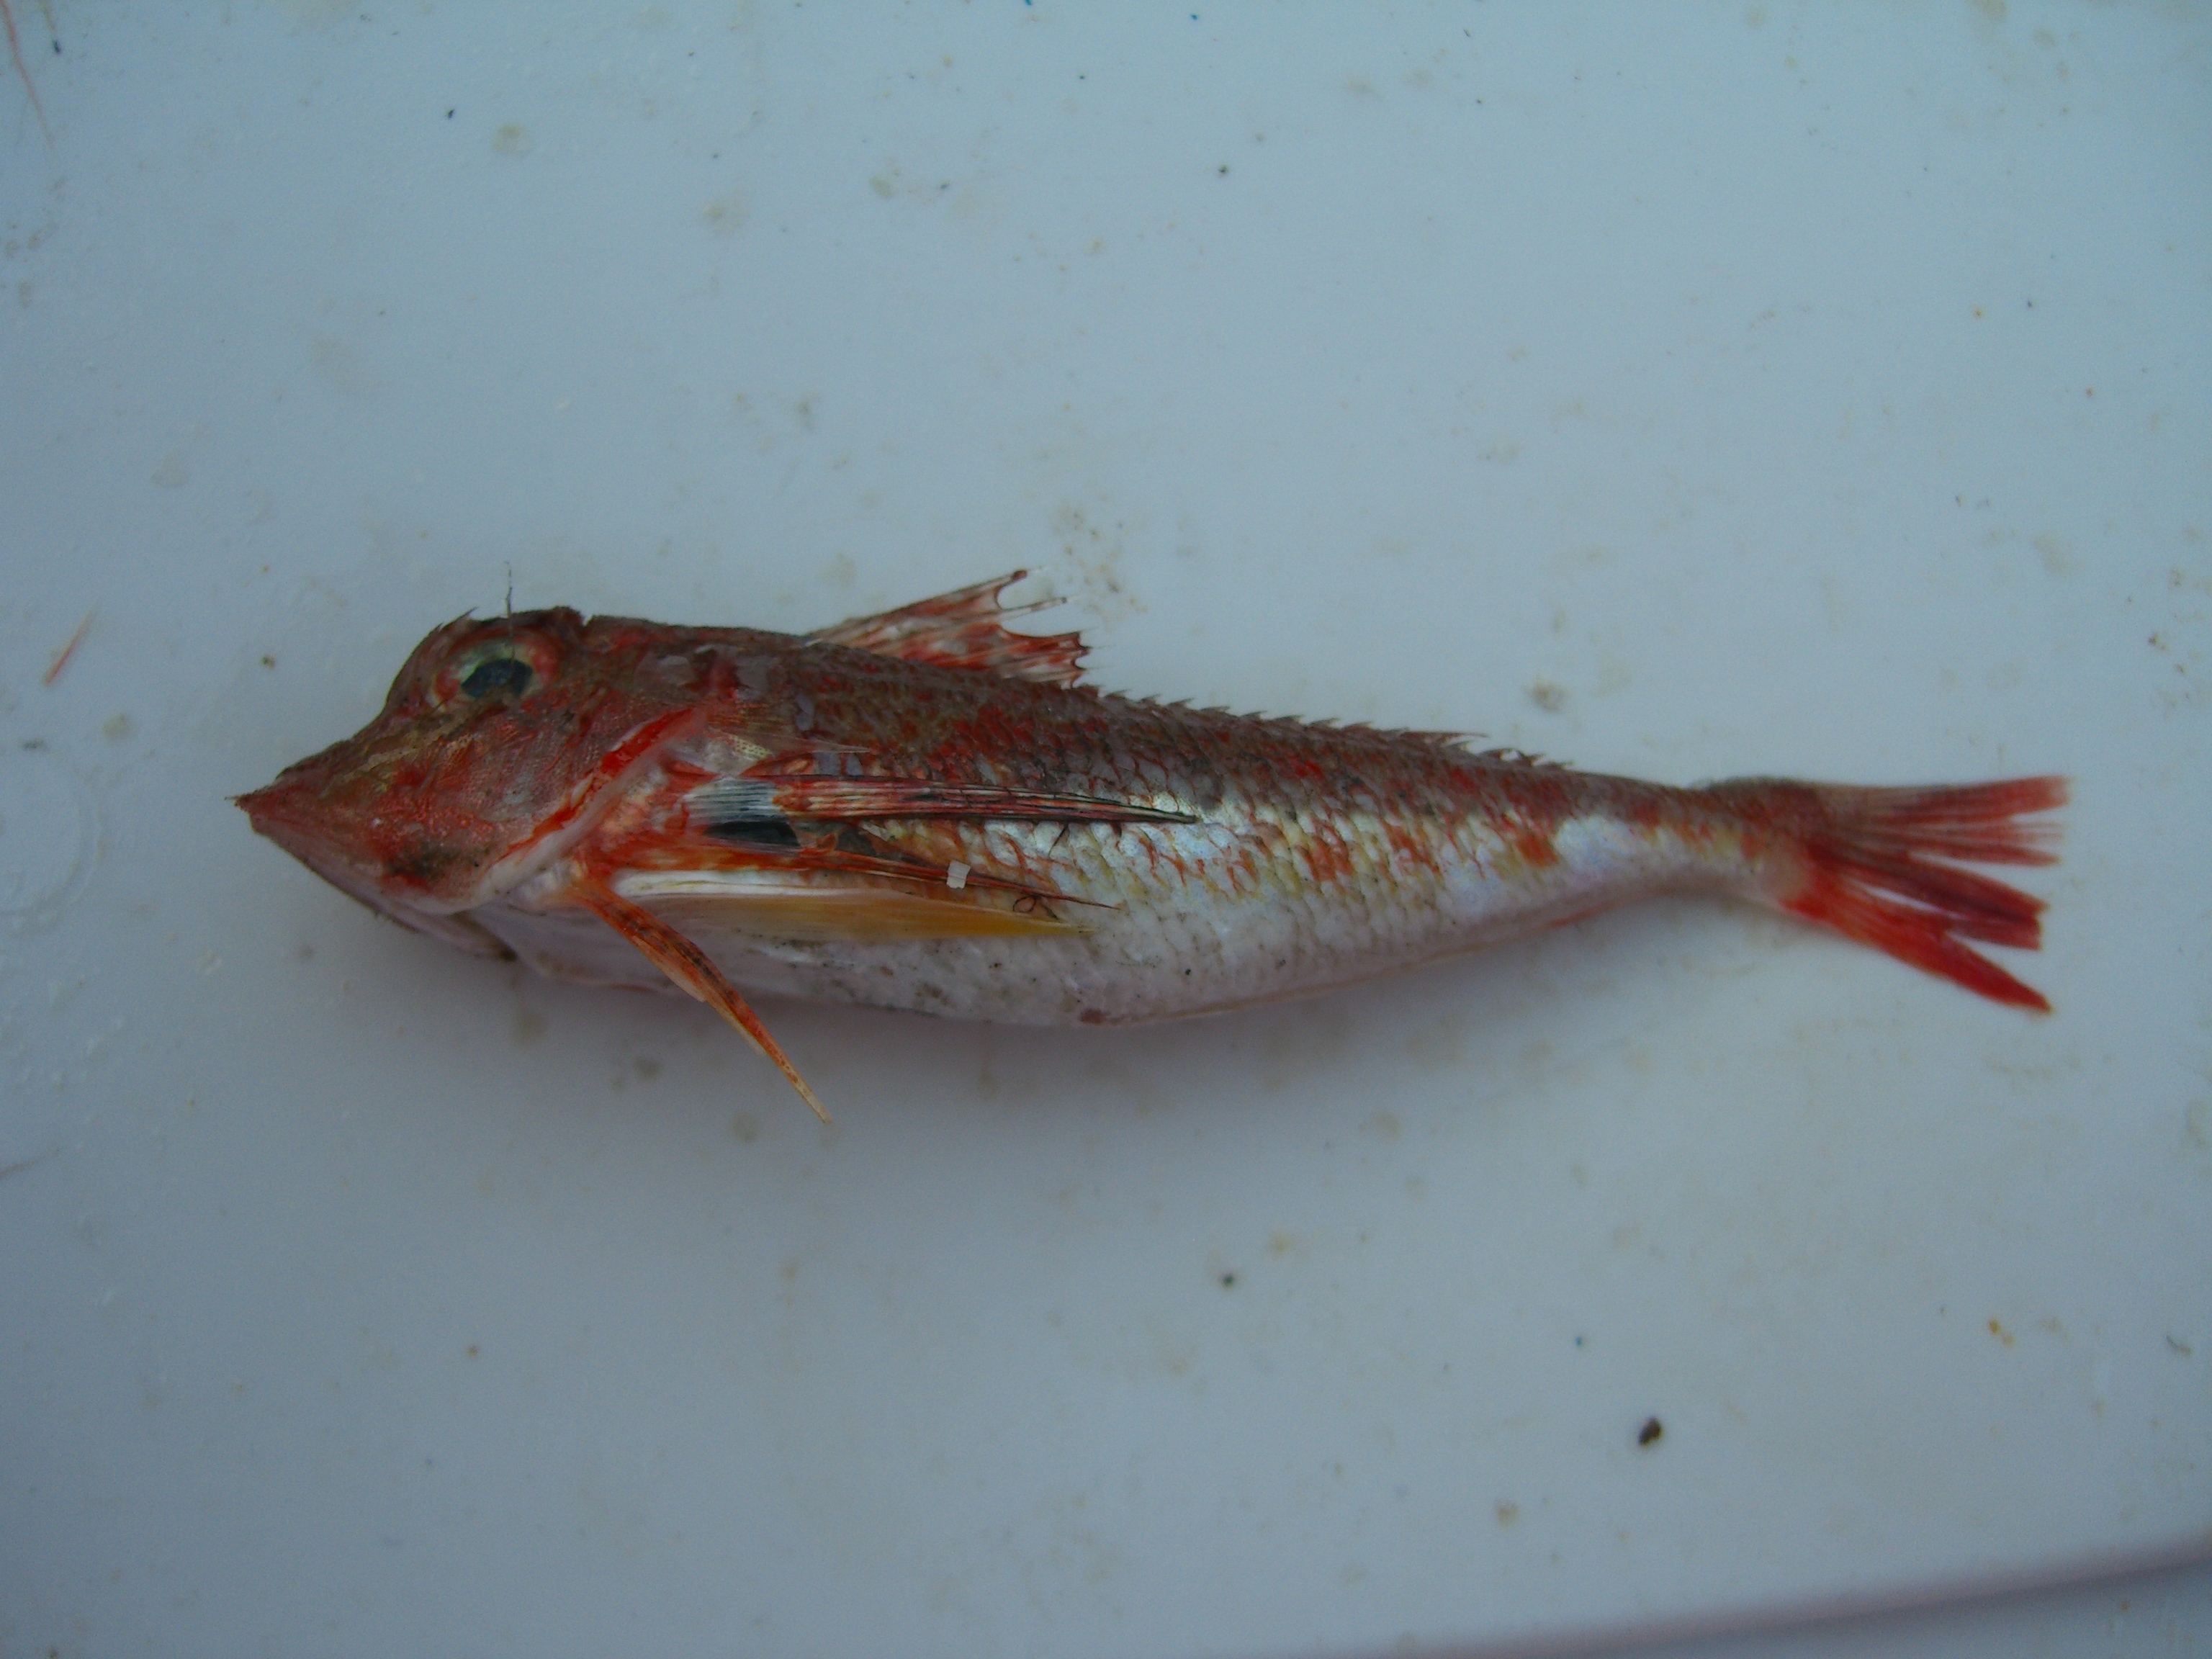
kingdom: Animalia
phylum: Chordata
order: Scorpaeniformes
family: Triglidae
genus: Lepidotrigla
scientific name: Lepidotrigla cavillone
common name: Large-scaled gurnard
